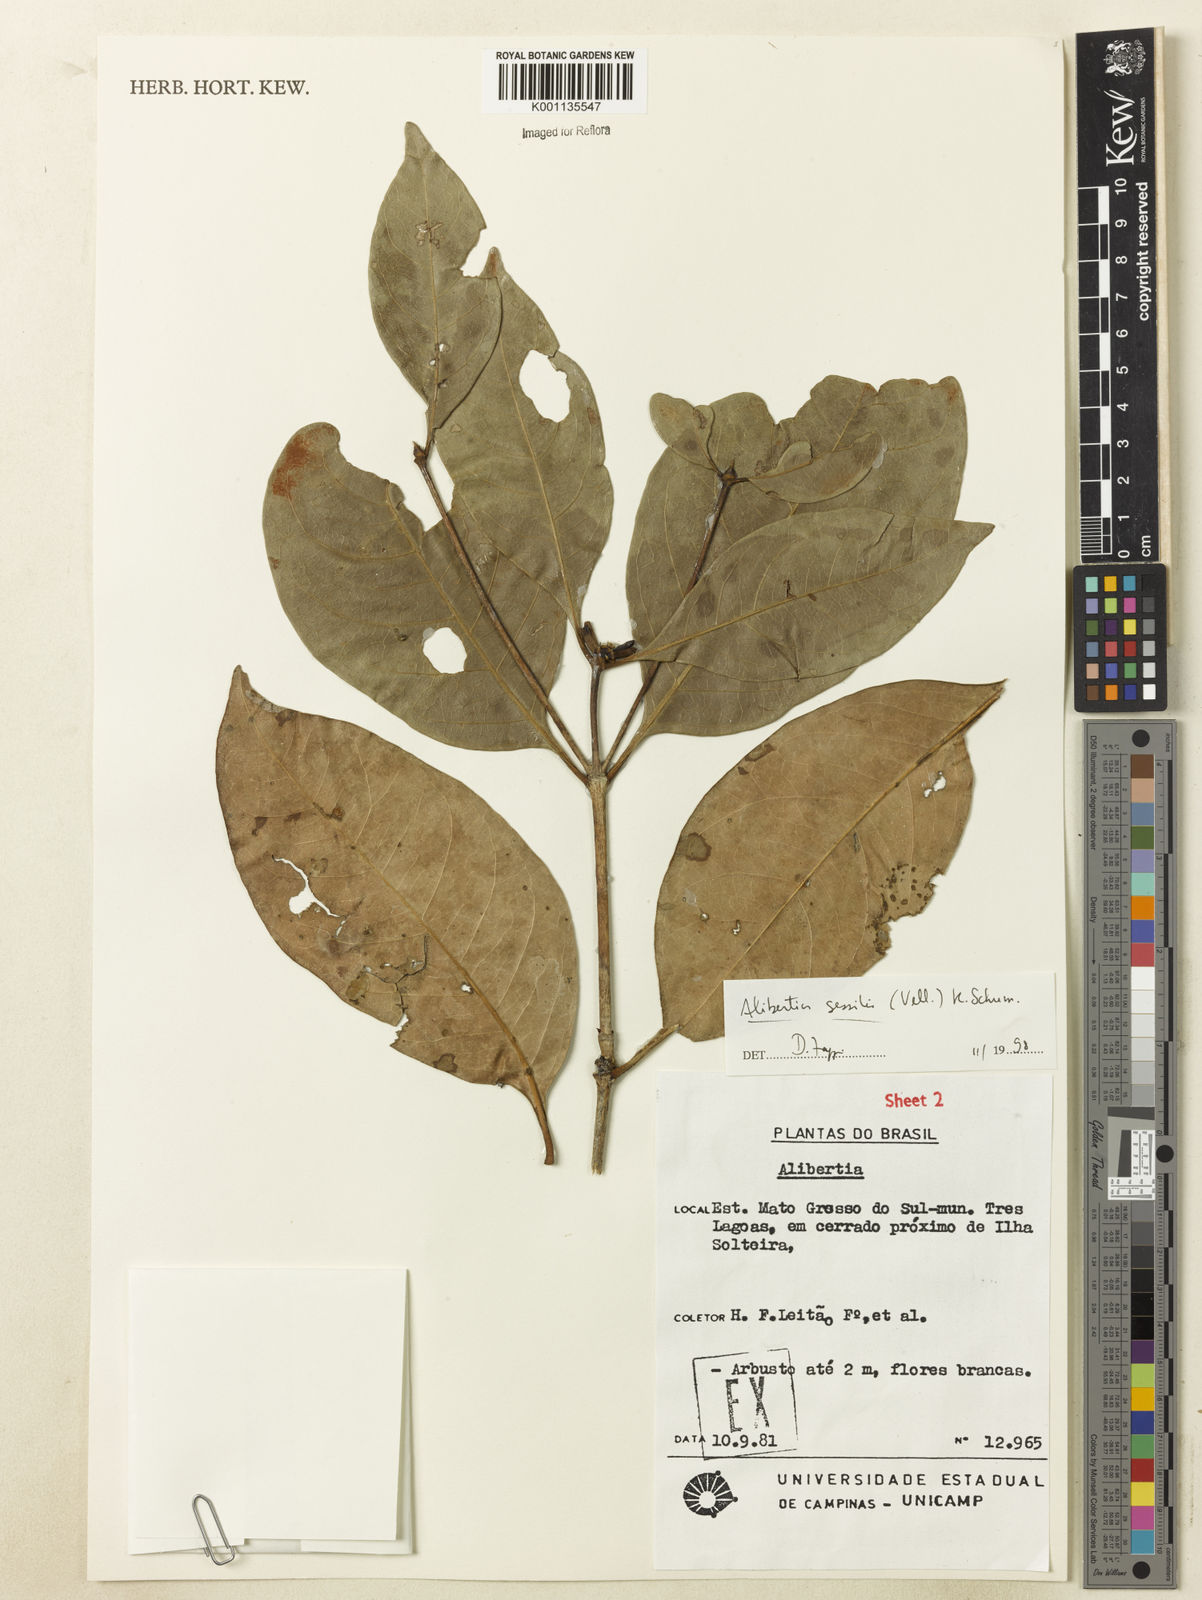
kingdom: Plantae
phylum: Tracheophyta
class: Magnoliopsida
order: Gentianales
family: Rubiaceae
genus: Cordiera
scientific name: Cordiera sessilis
